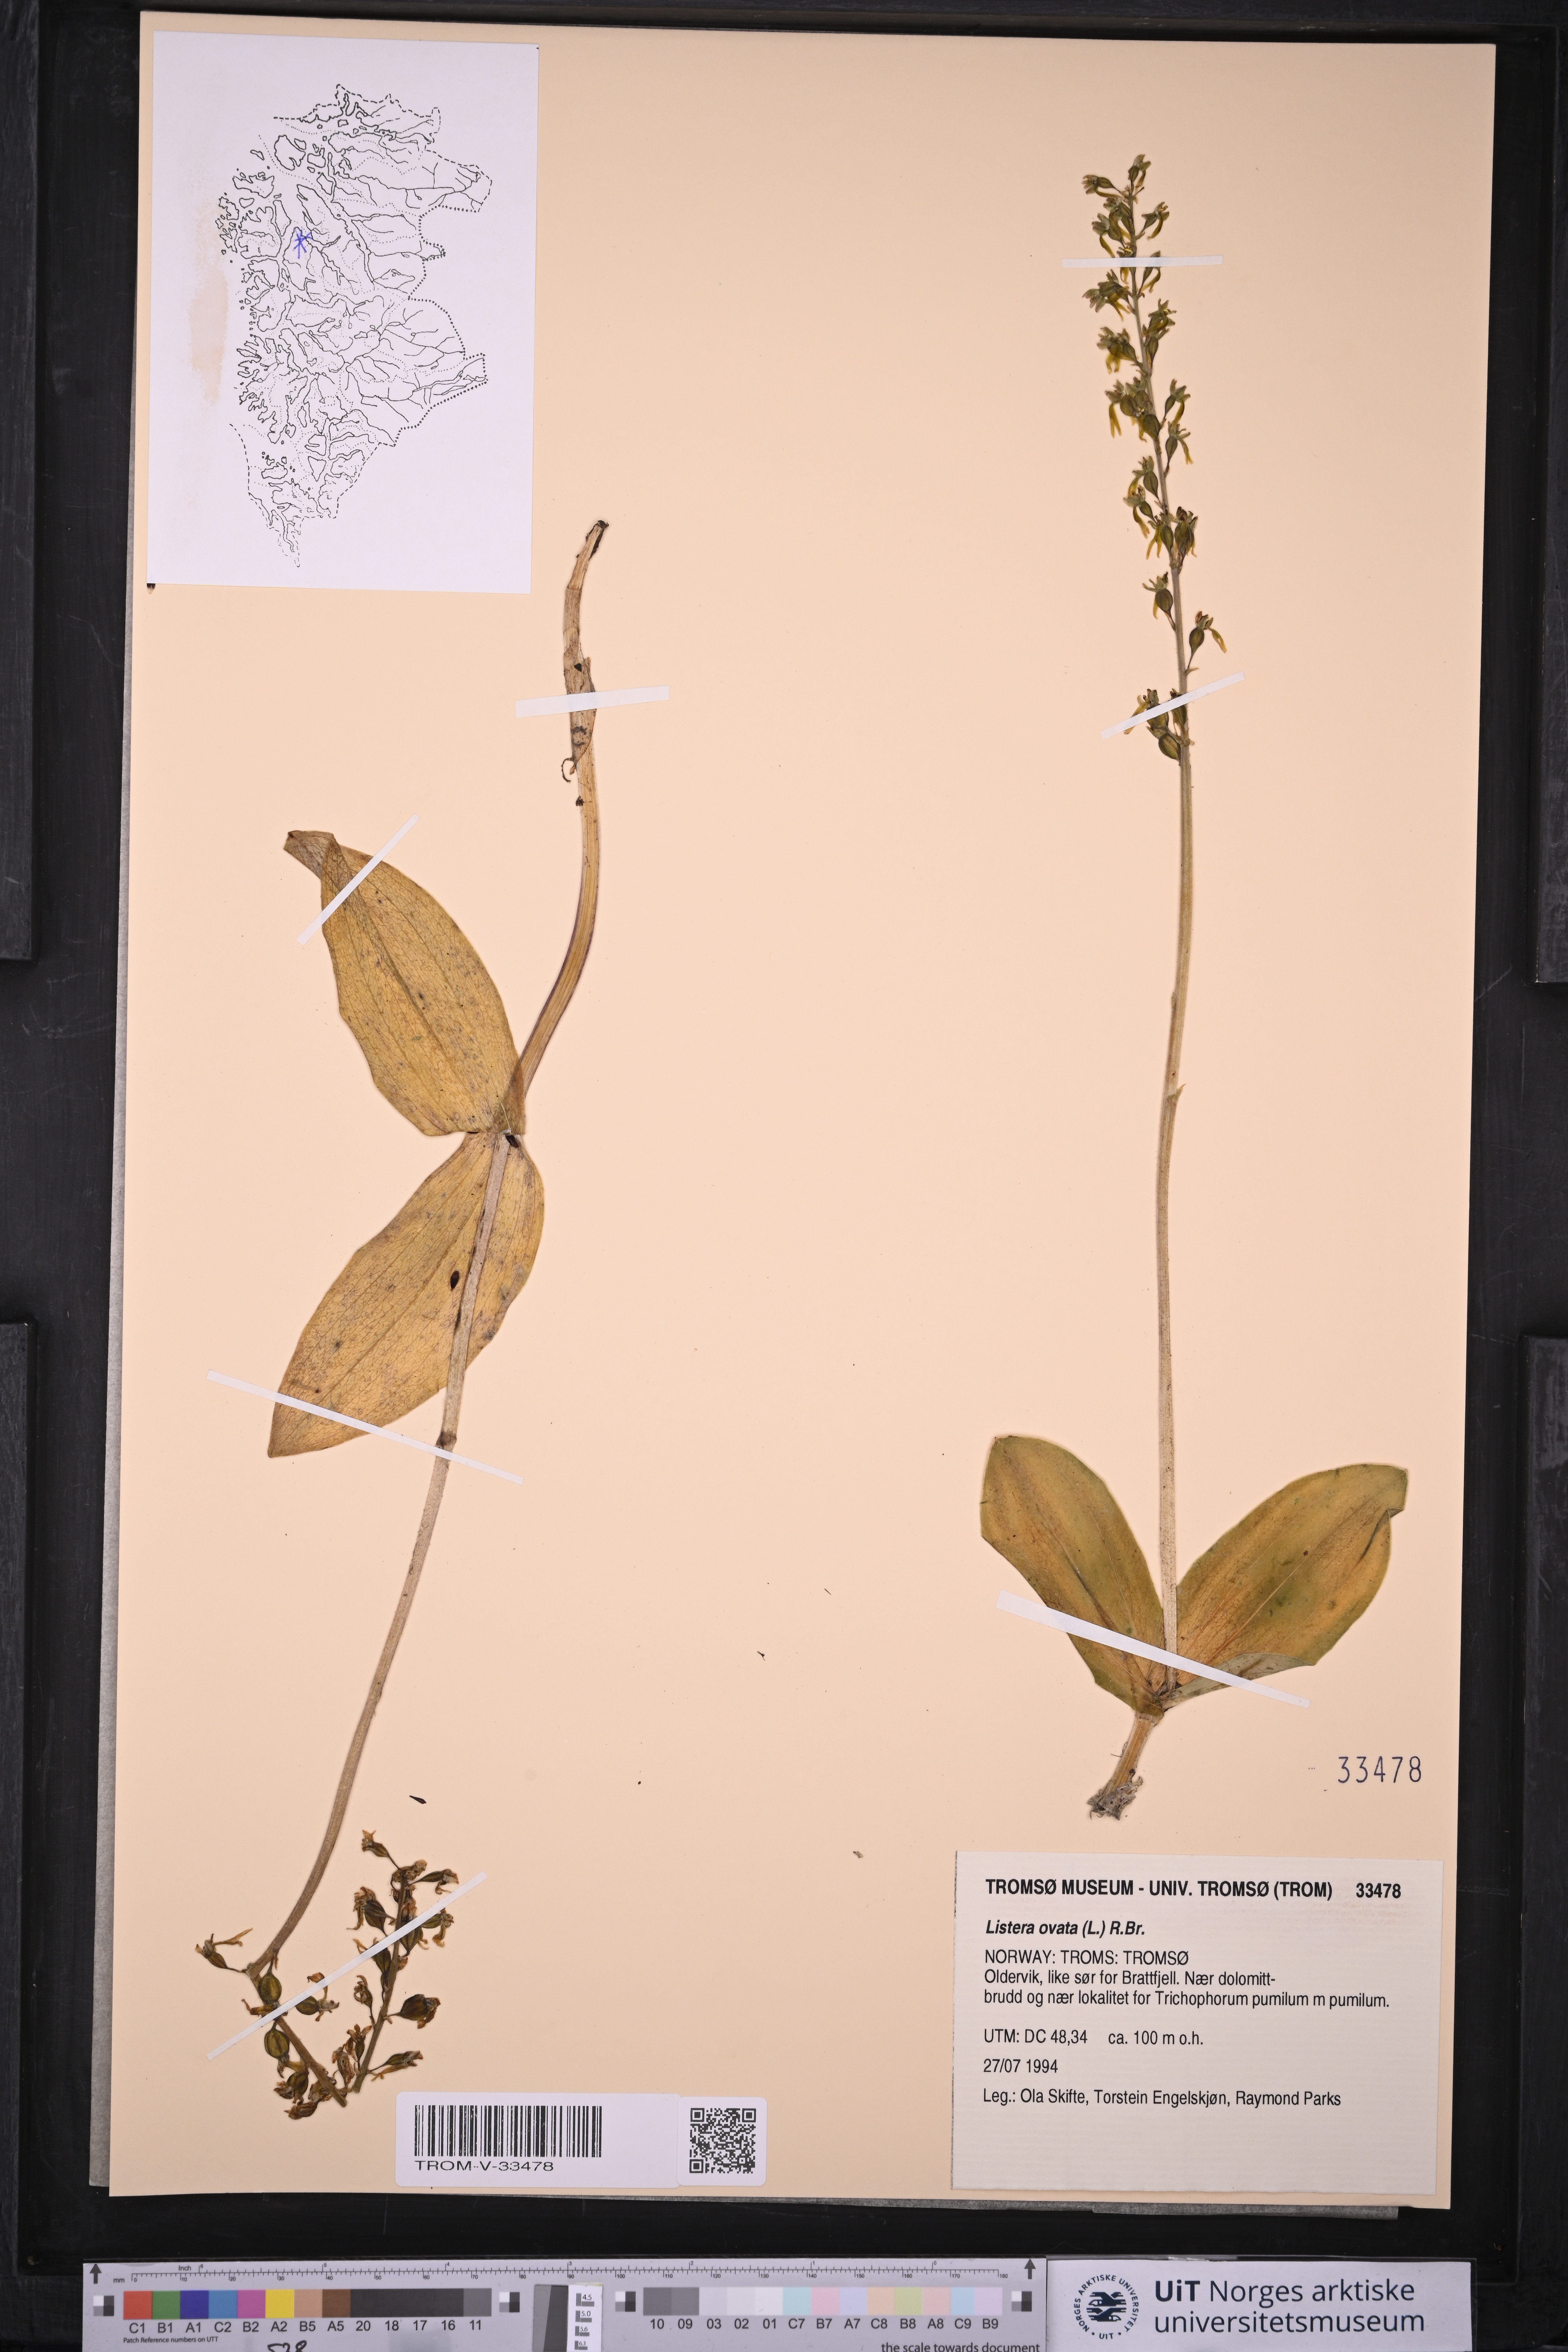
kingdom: Plantae
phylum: Tracheophyta
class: Liliopsida
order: Asparagales
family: Orchidaceae
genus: Neottia
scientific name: Neottia ovata
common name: Common twayblade
